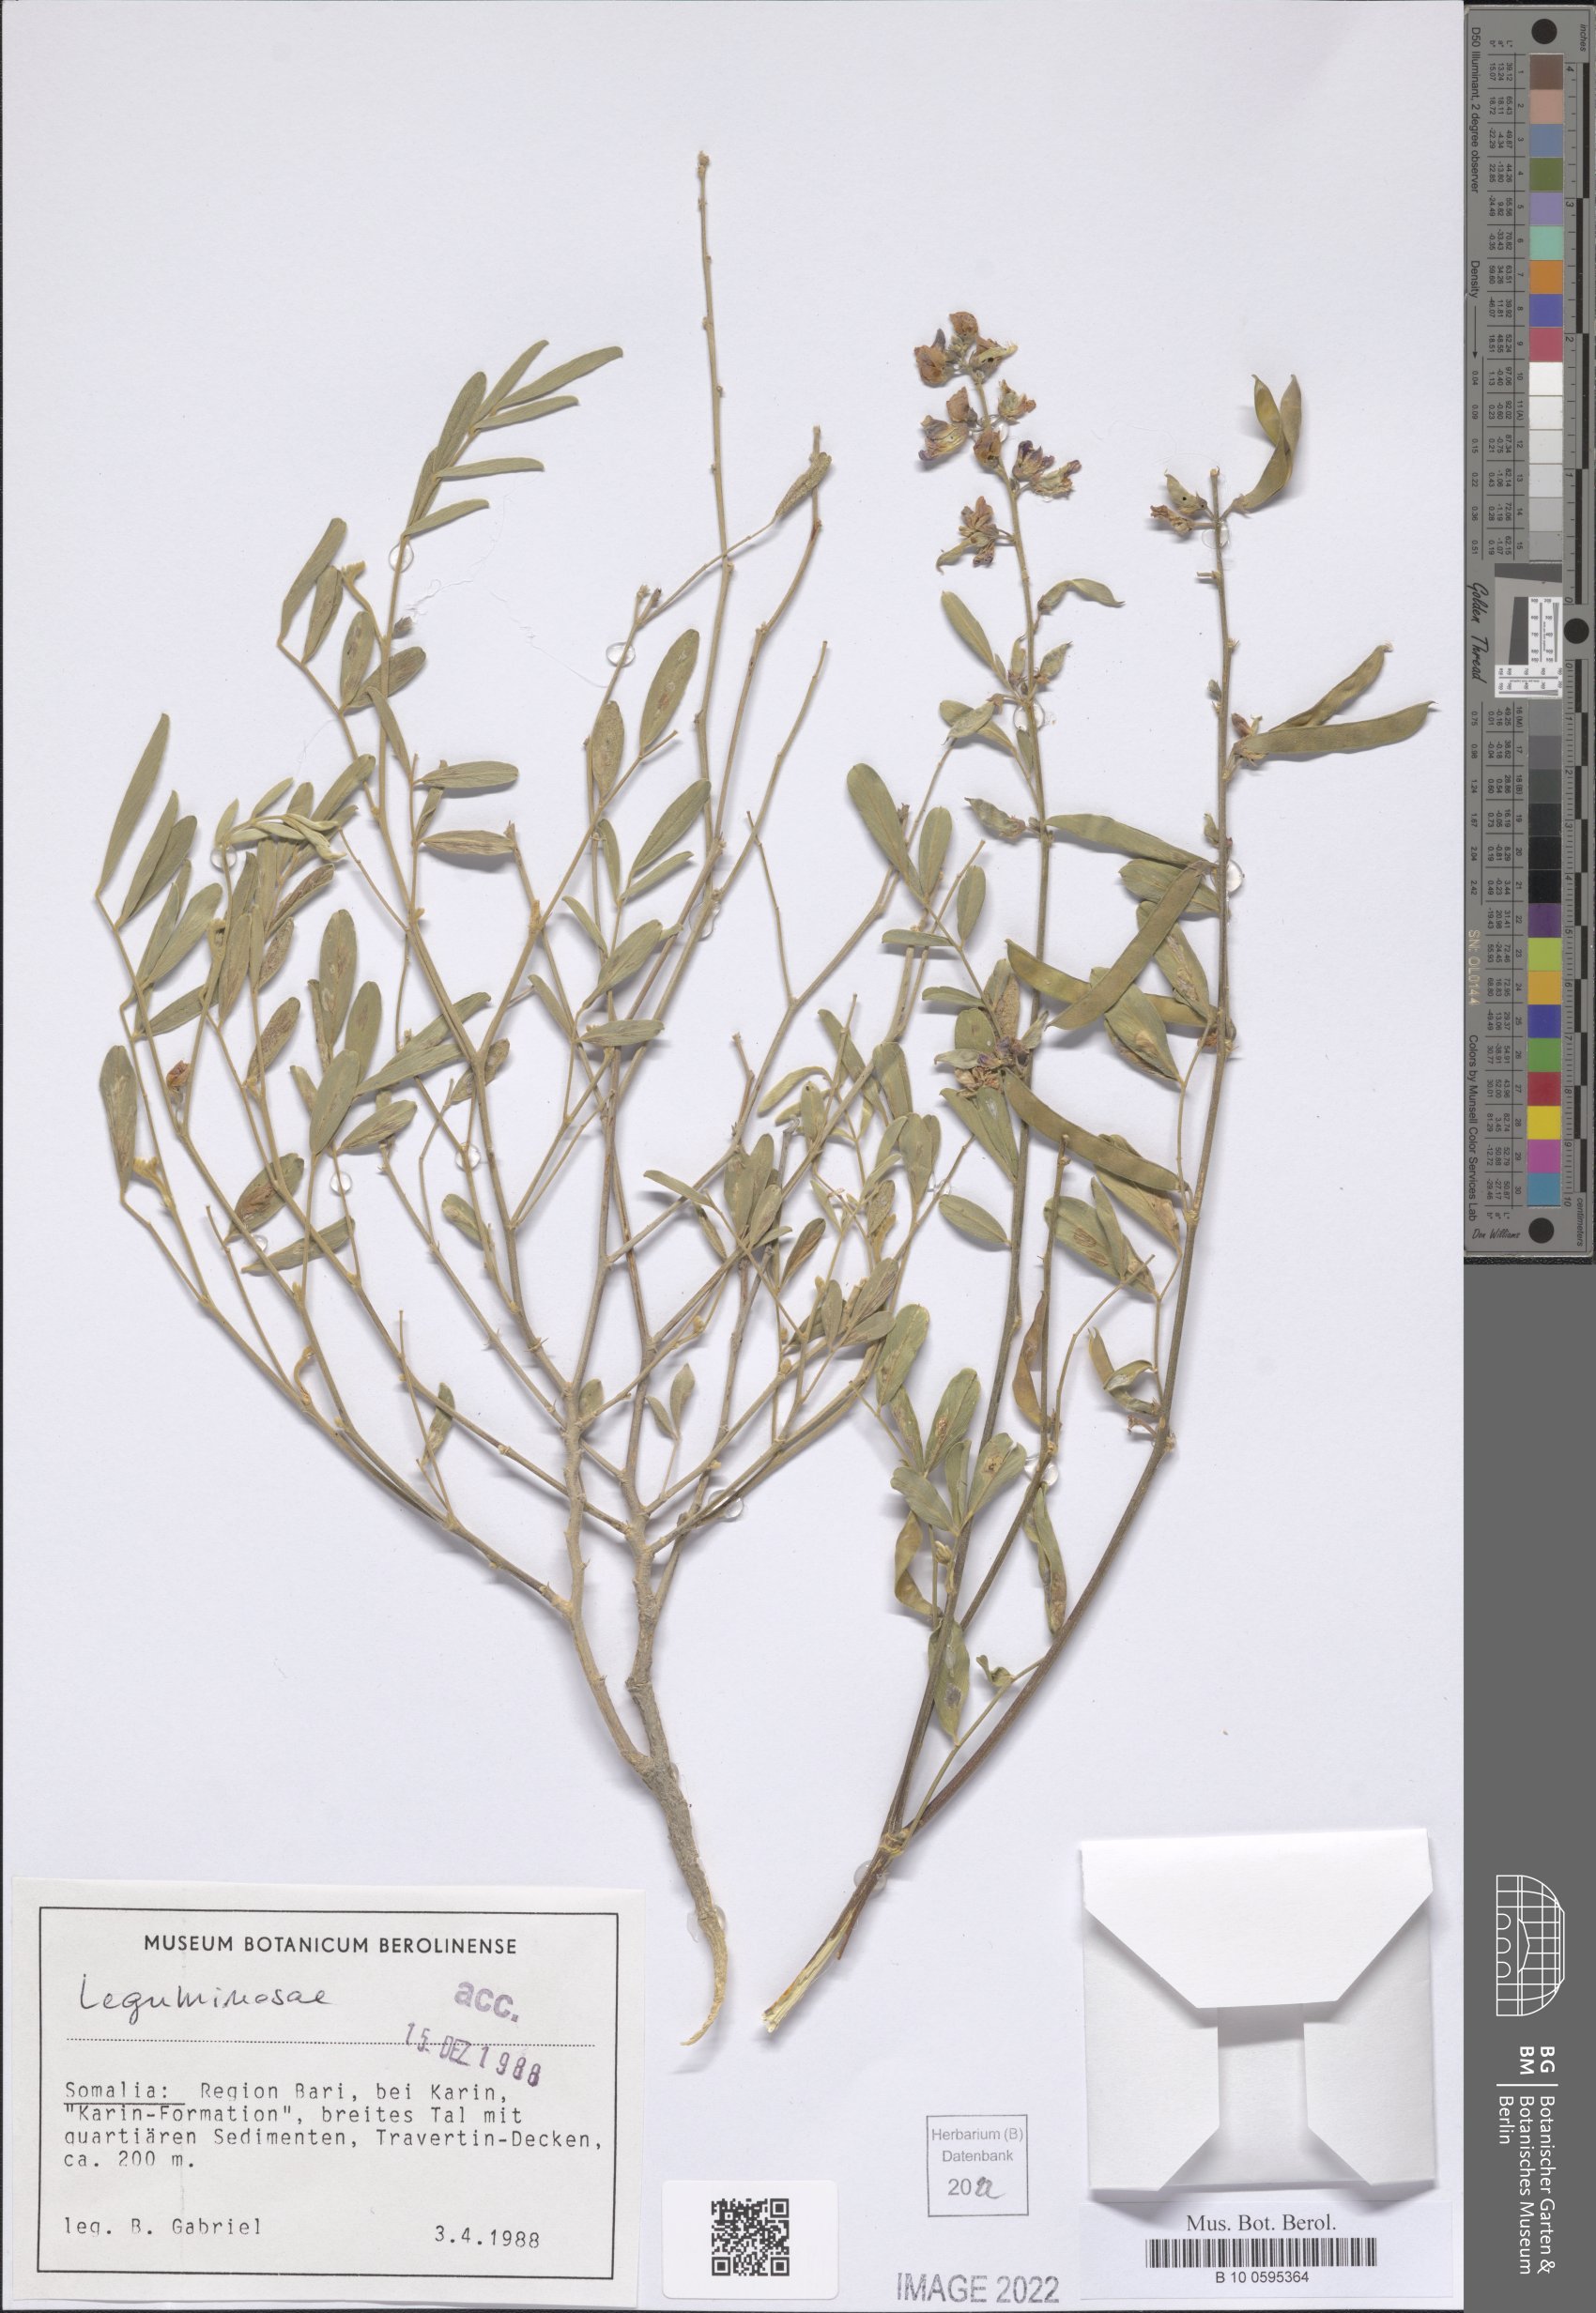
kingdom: Plantae
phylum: Tracheophyta
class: Magnoliopsida
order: Fabales
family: Fabaceae
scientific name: Fabaceae
